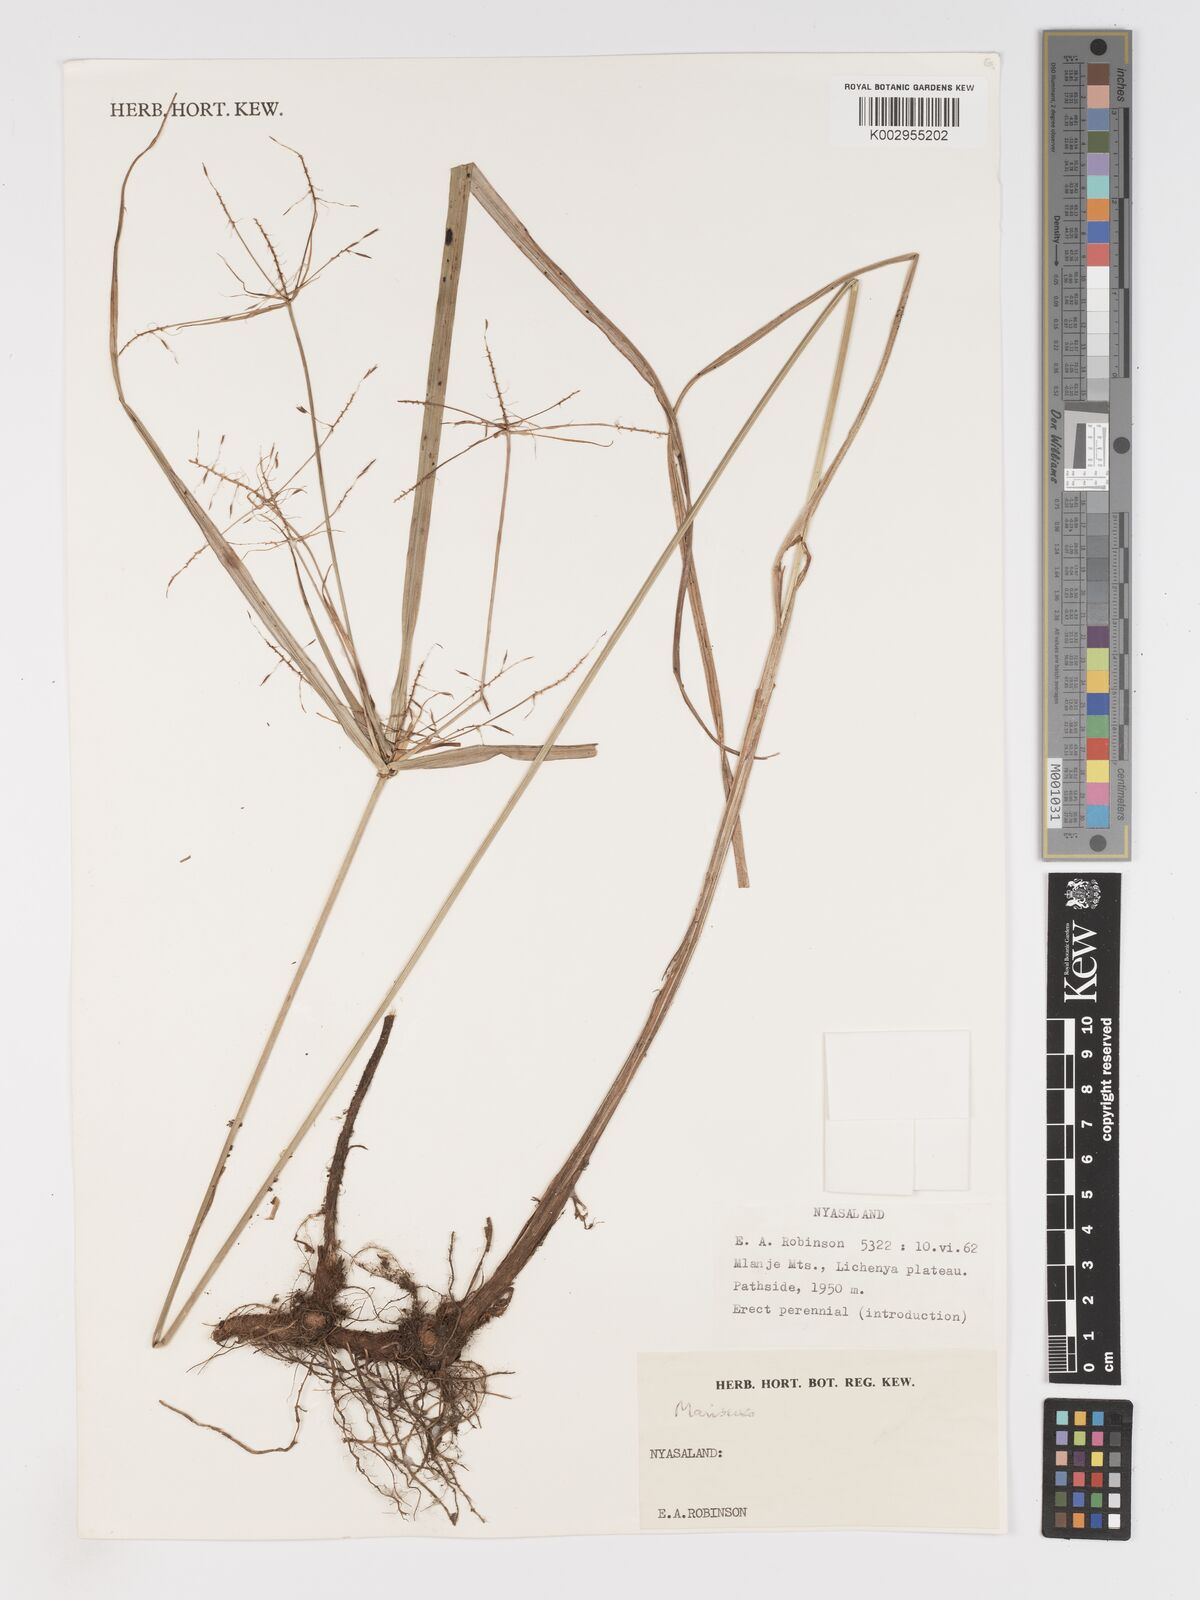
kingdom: Plantae
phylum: Tracheophyta
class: Liliopsida
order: Poales
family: Cyperaceae
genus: Cyperus
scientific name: Cyperus
